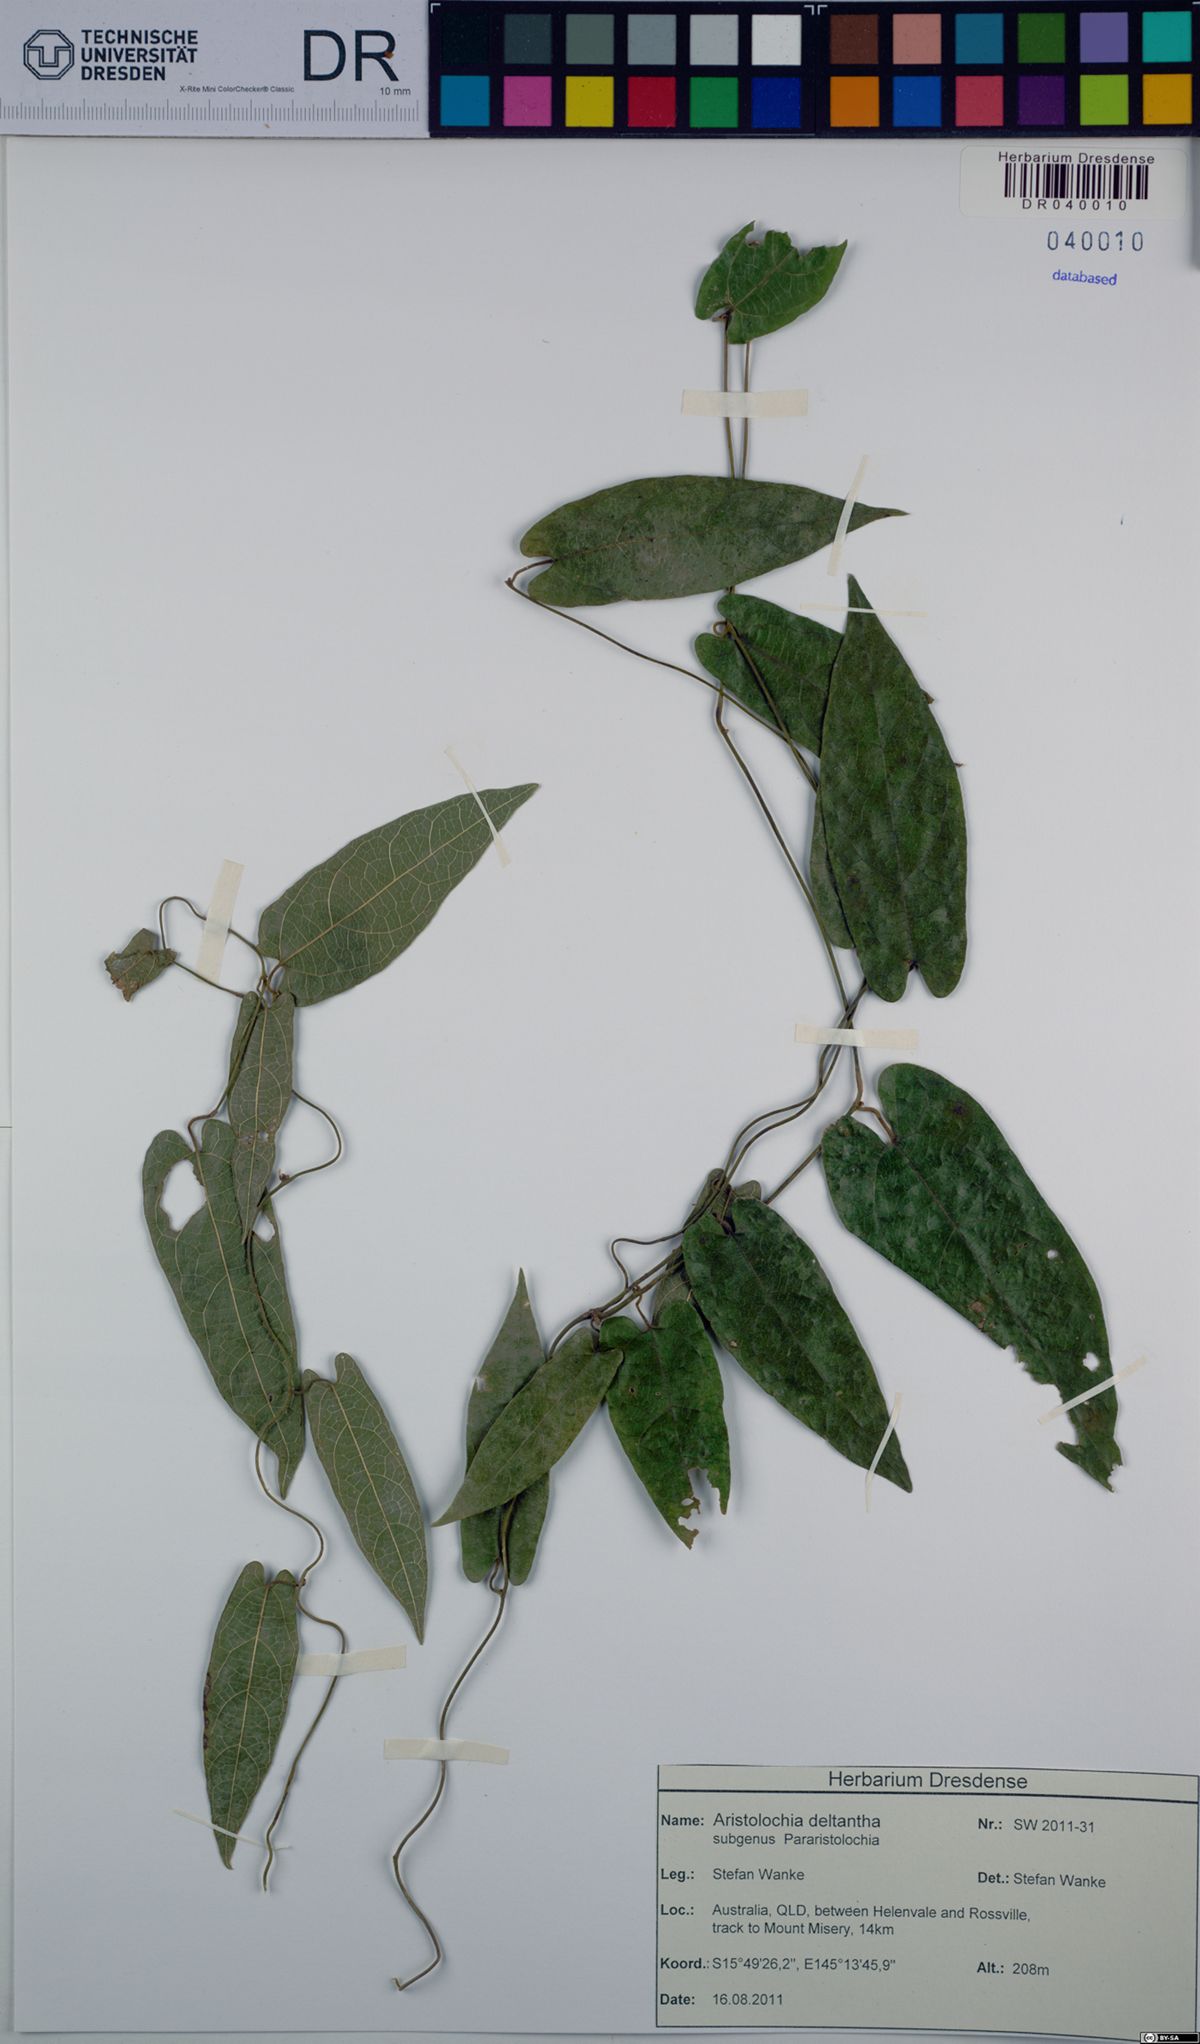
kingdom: Plantae
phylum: Tracheophyta
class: Magnoliopsida
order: Piperales
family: Aristolochiaceae
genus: Aristolochia
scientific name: Aristolochia deltantha
